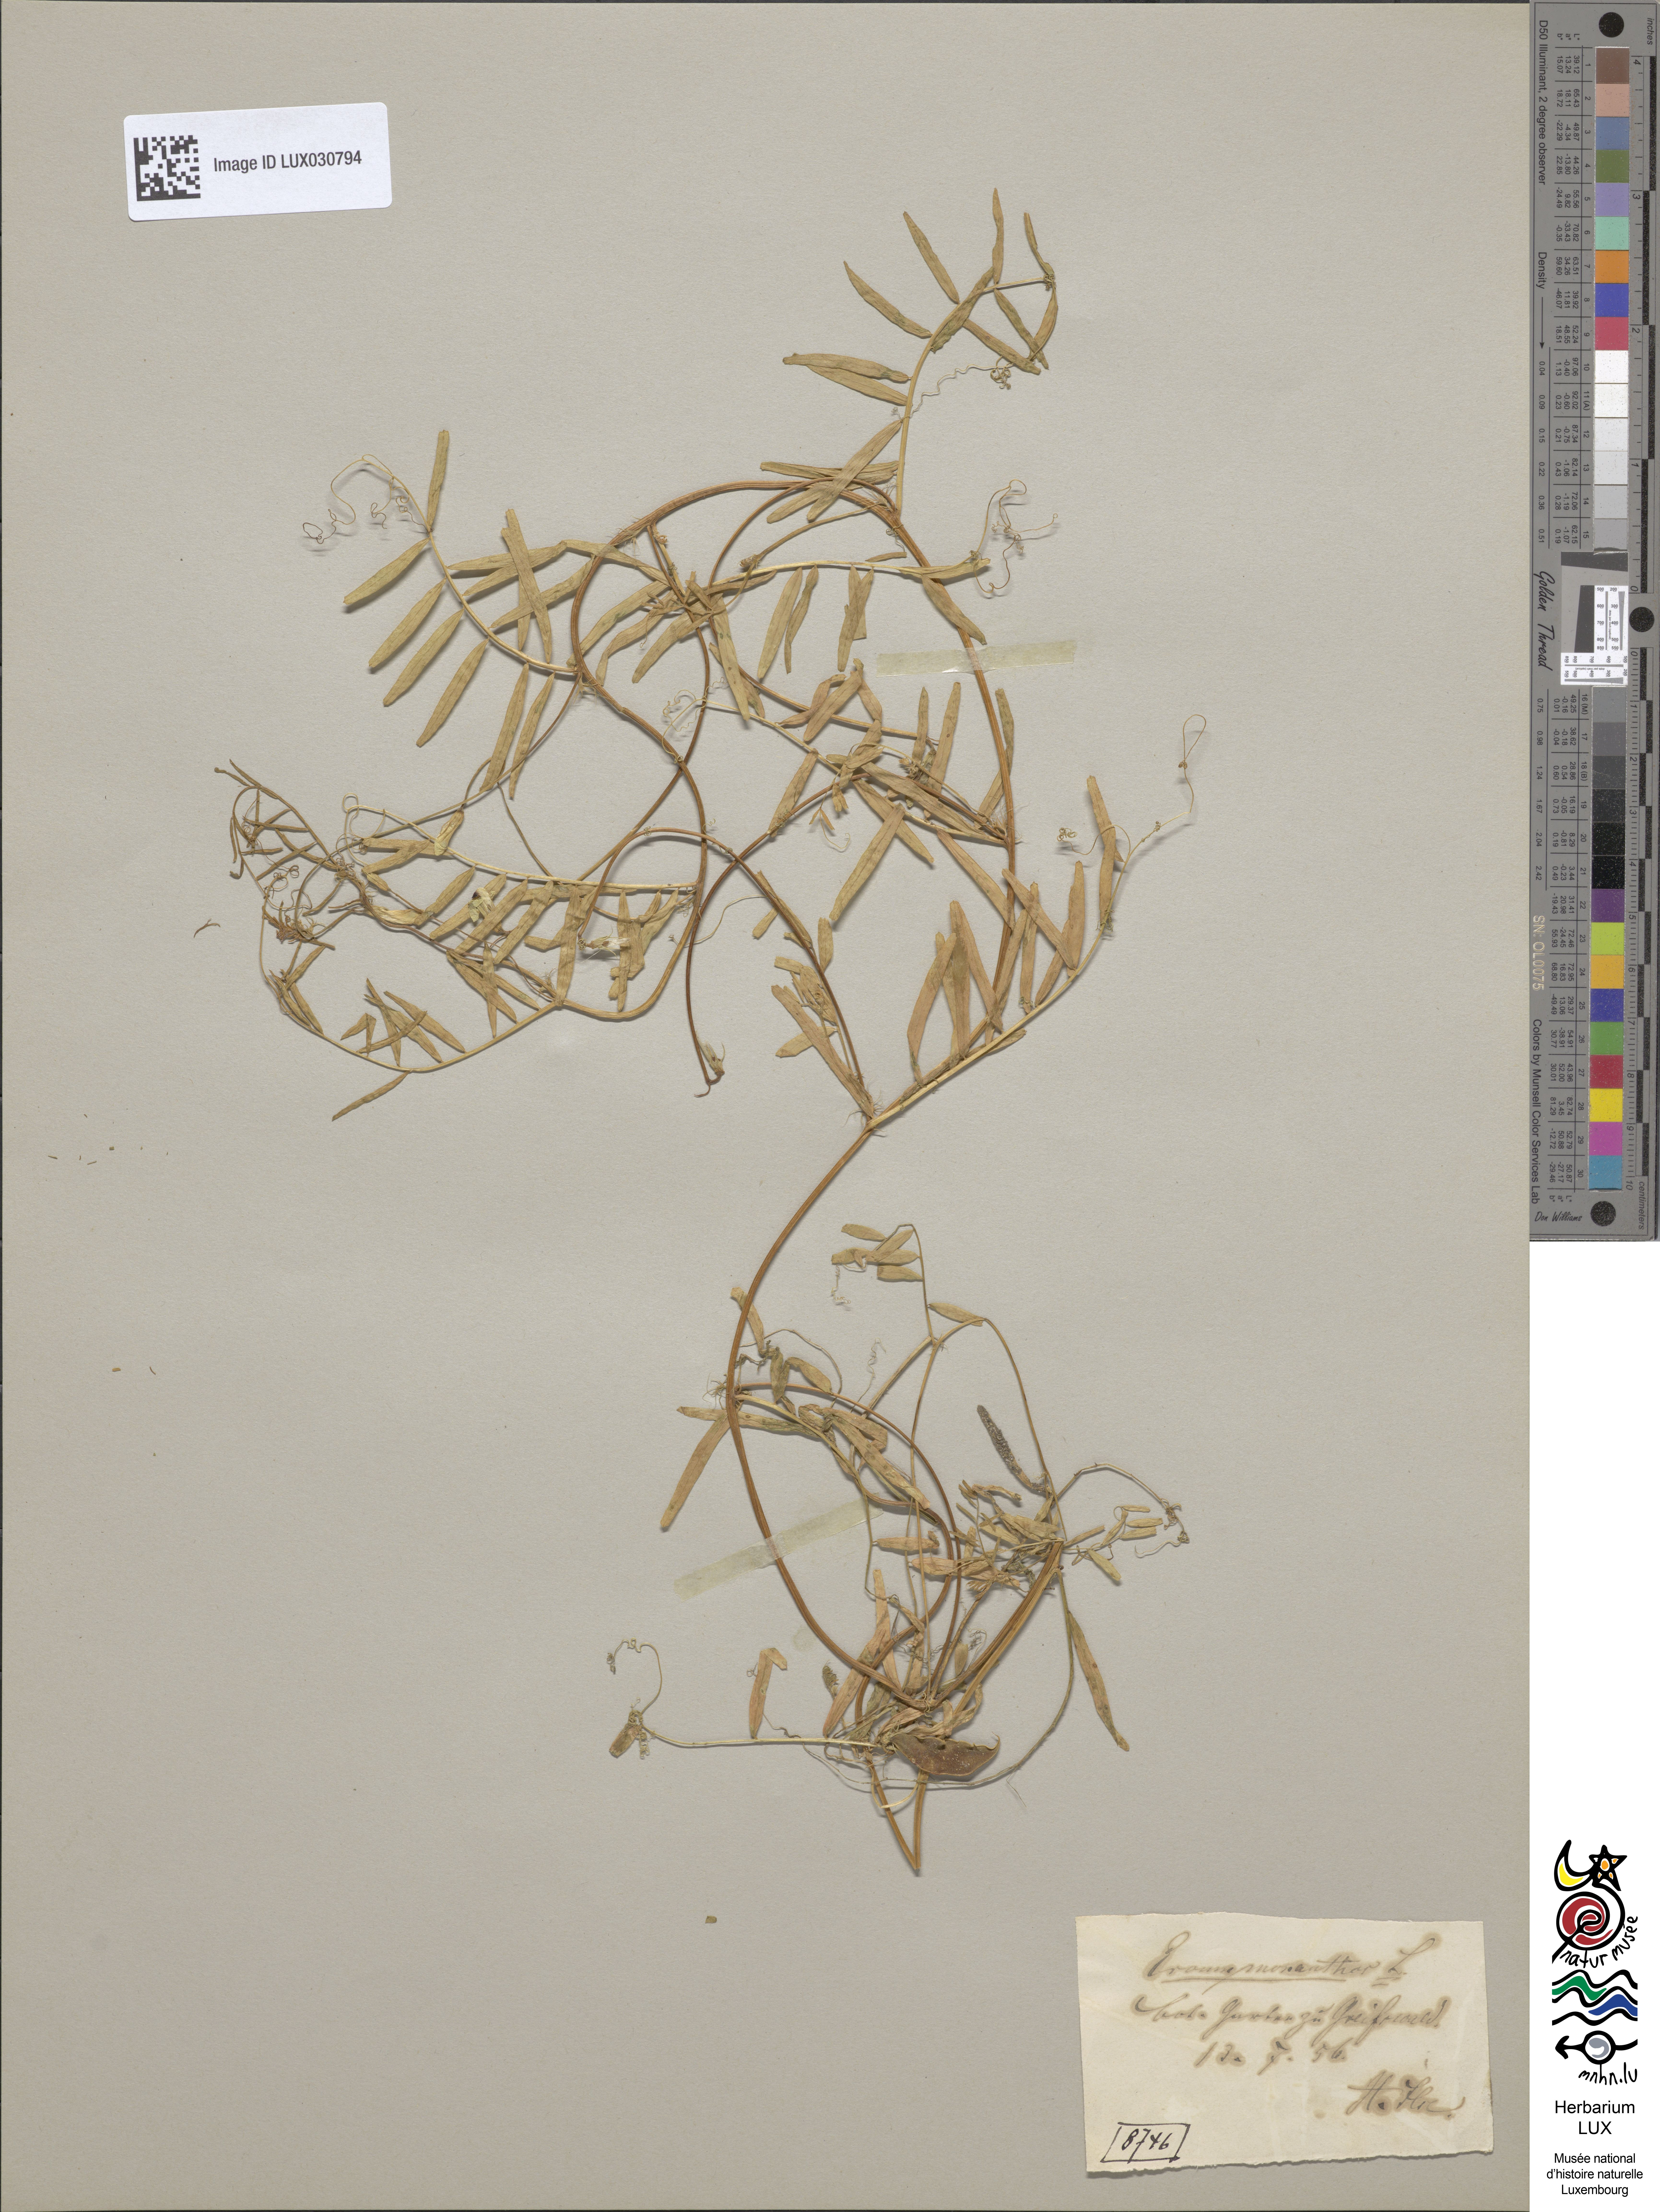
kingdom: Plantae
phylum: Tracheophyta
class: Magnoliopsida
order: Fabales
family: Fabaceae
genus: Vicia
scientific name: Vicia articulata
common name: Monantha vetch
